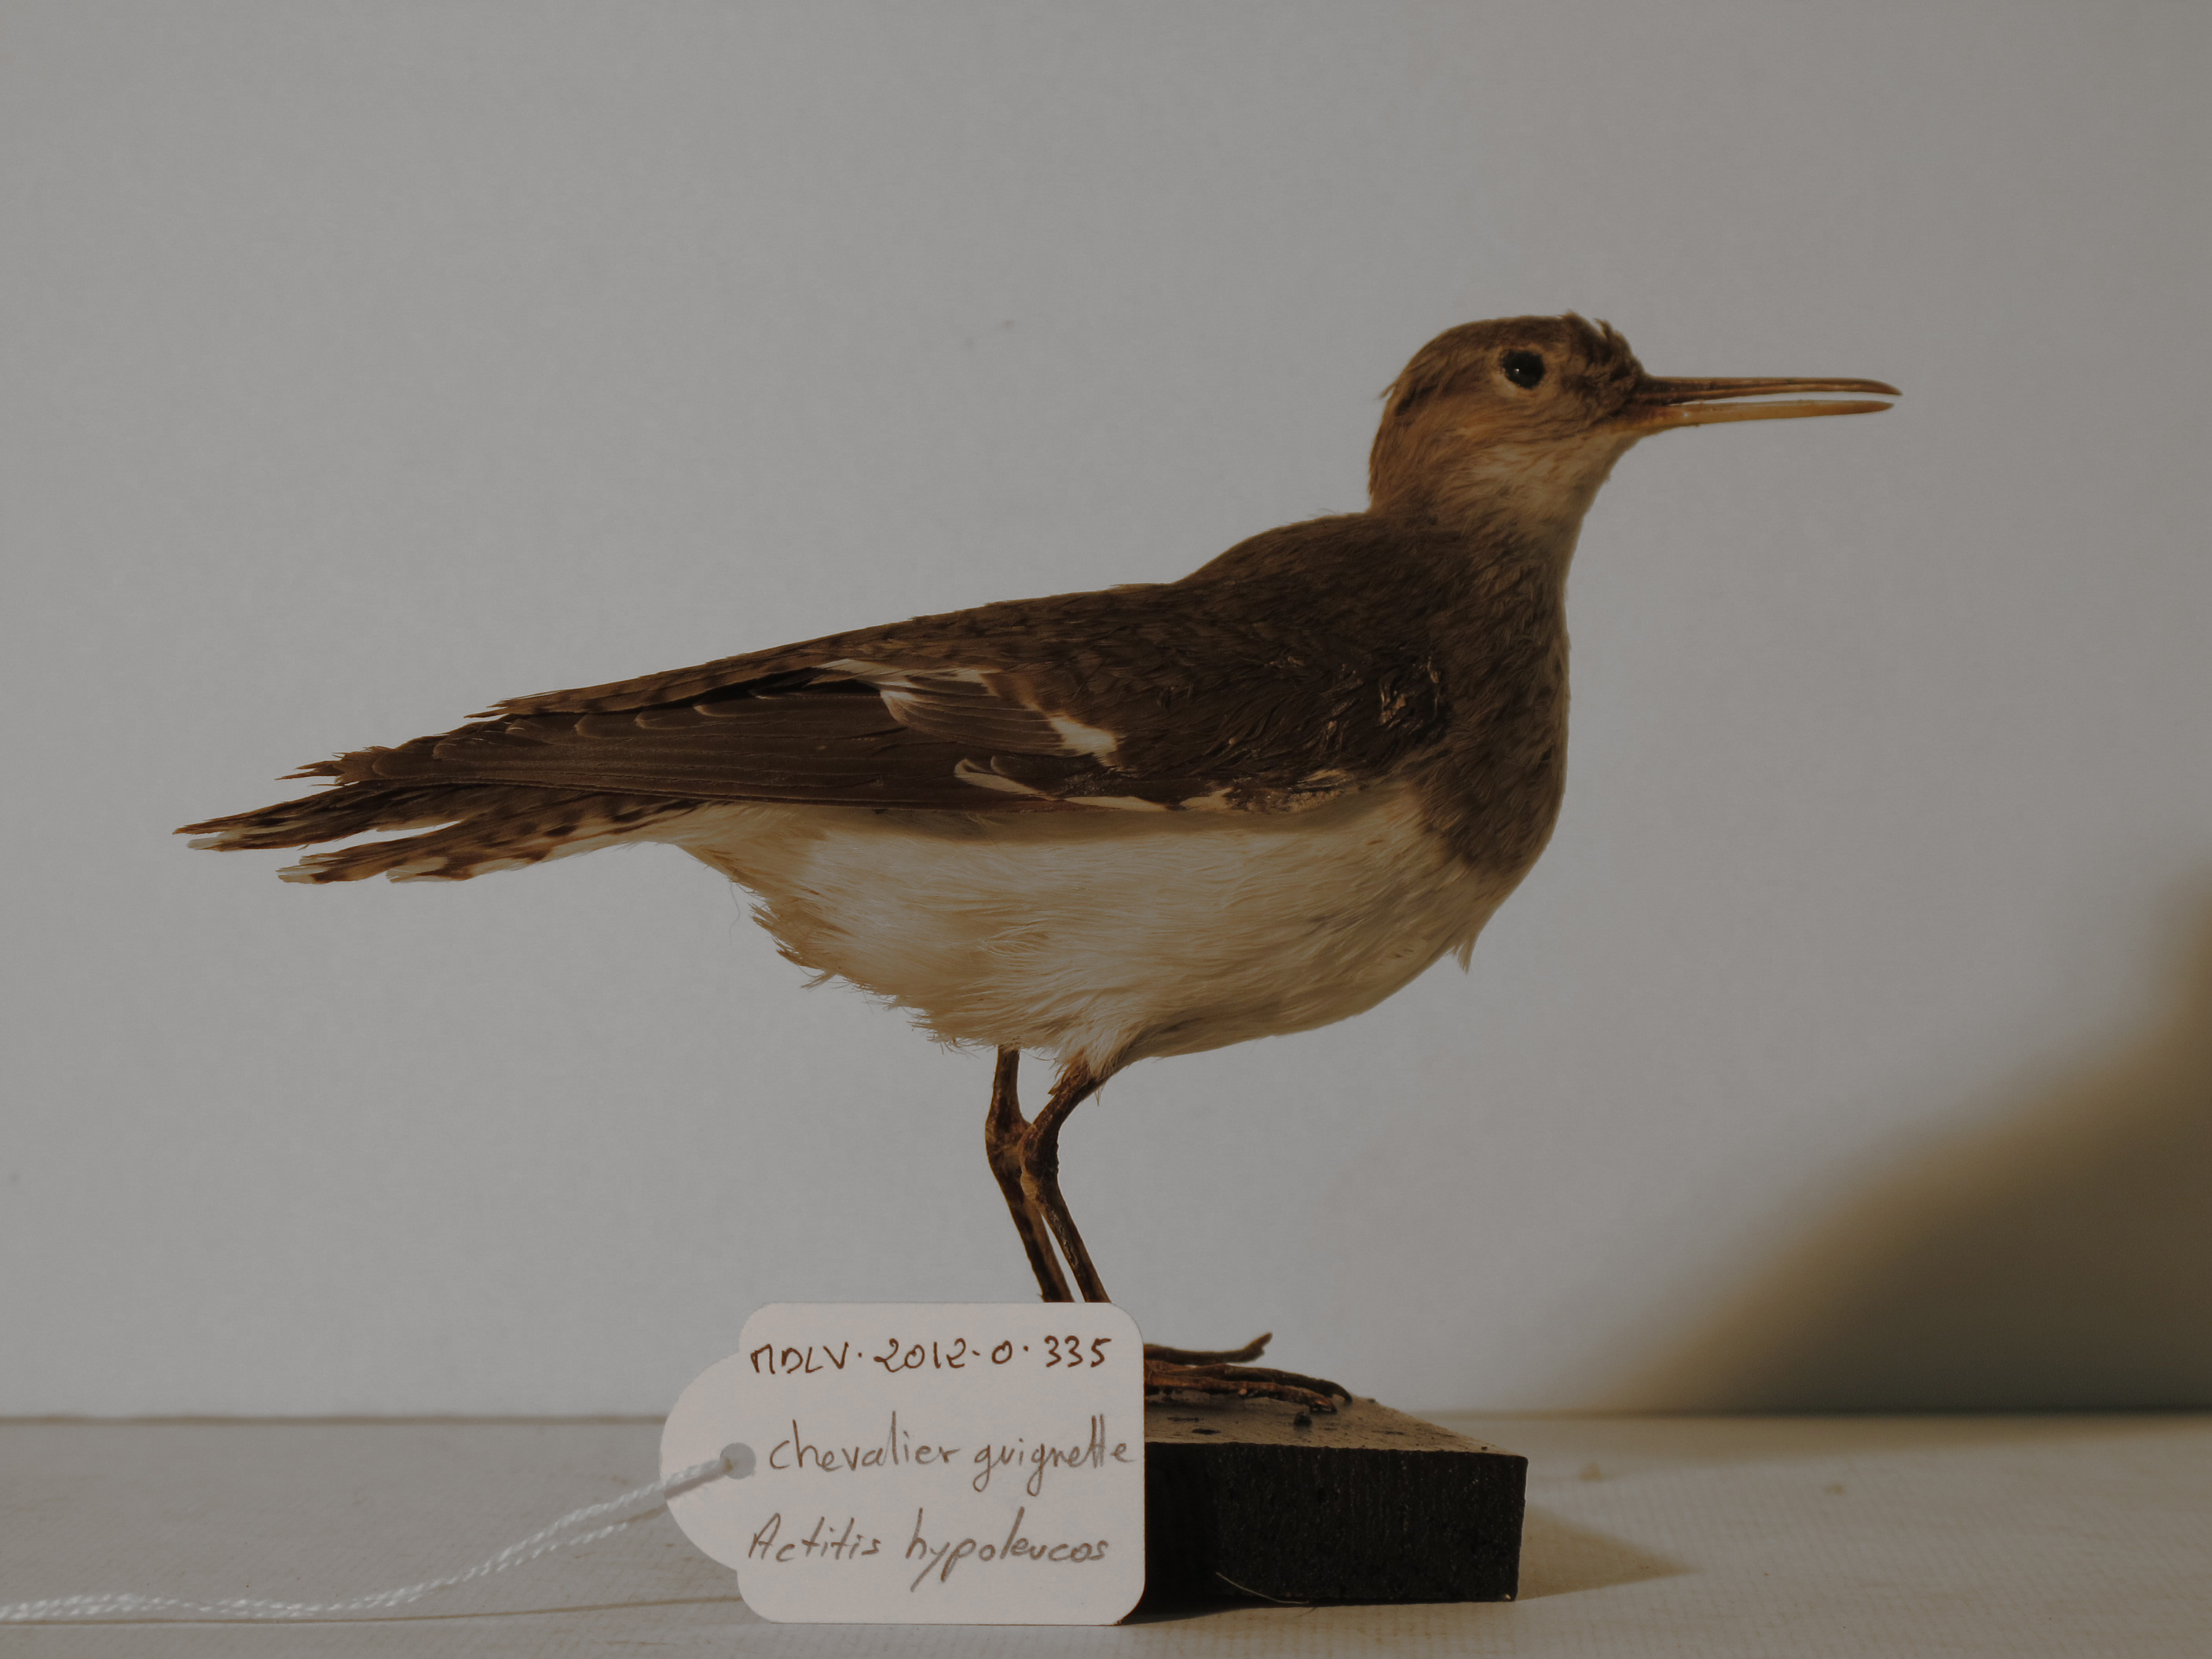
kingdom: Animalia
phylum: Chordata
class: Aves
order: Charadriiformes
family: Scolopacidae
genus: Actitis
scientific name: Actitis hypoleucos
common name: Common Sandpiper
